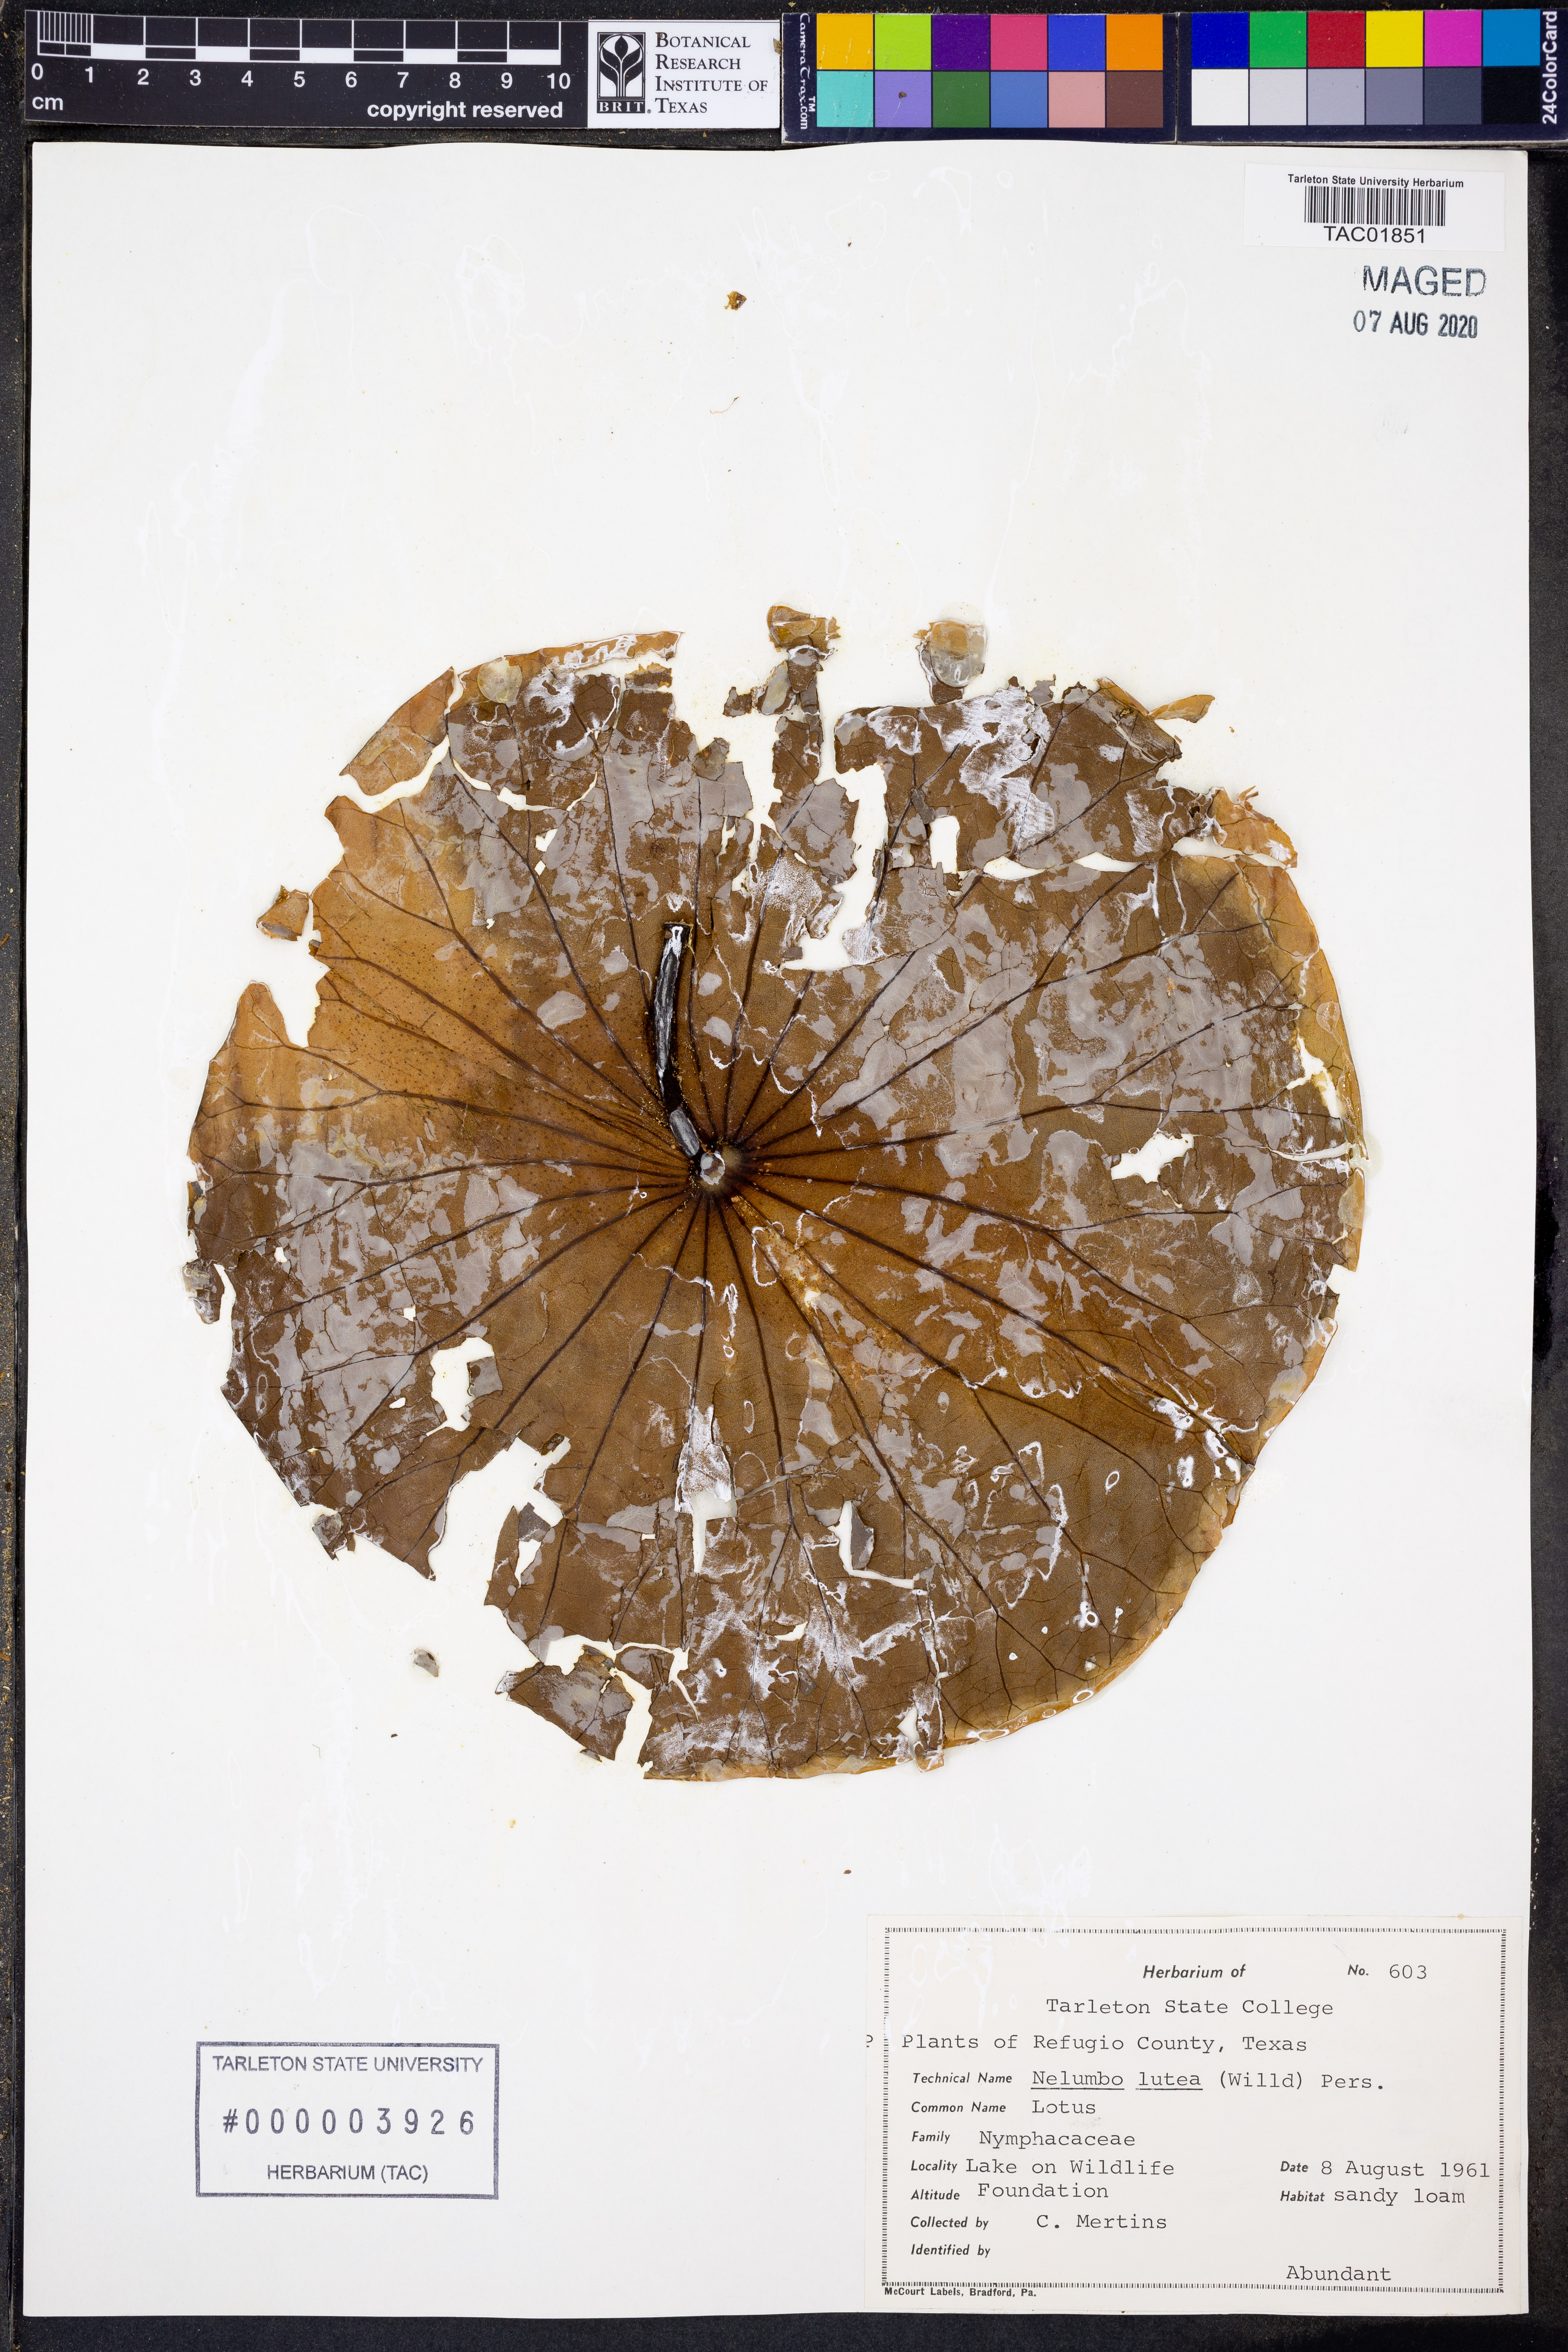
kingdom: Plantae
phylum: Tracheophyta
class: Magnoliopsida
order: Proteales
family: Nelumbonaceae
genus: Nelumbo
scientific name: Nelumbo lutea
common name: American lotus
